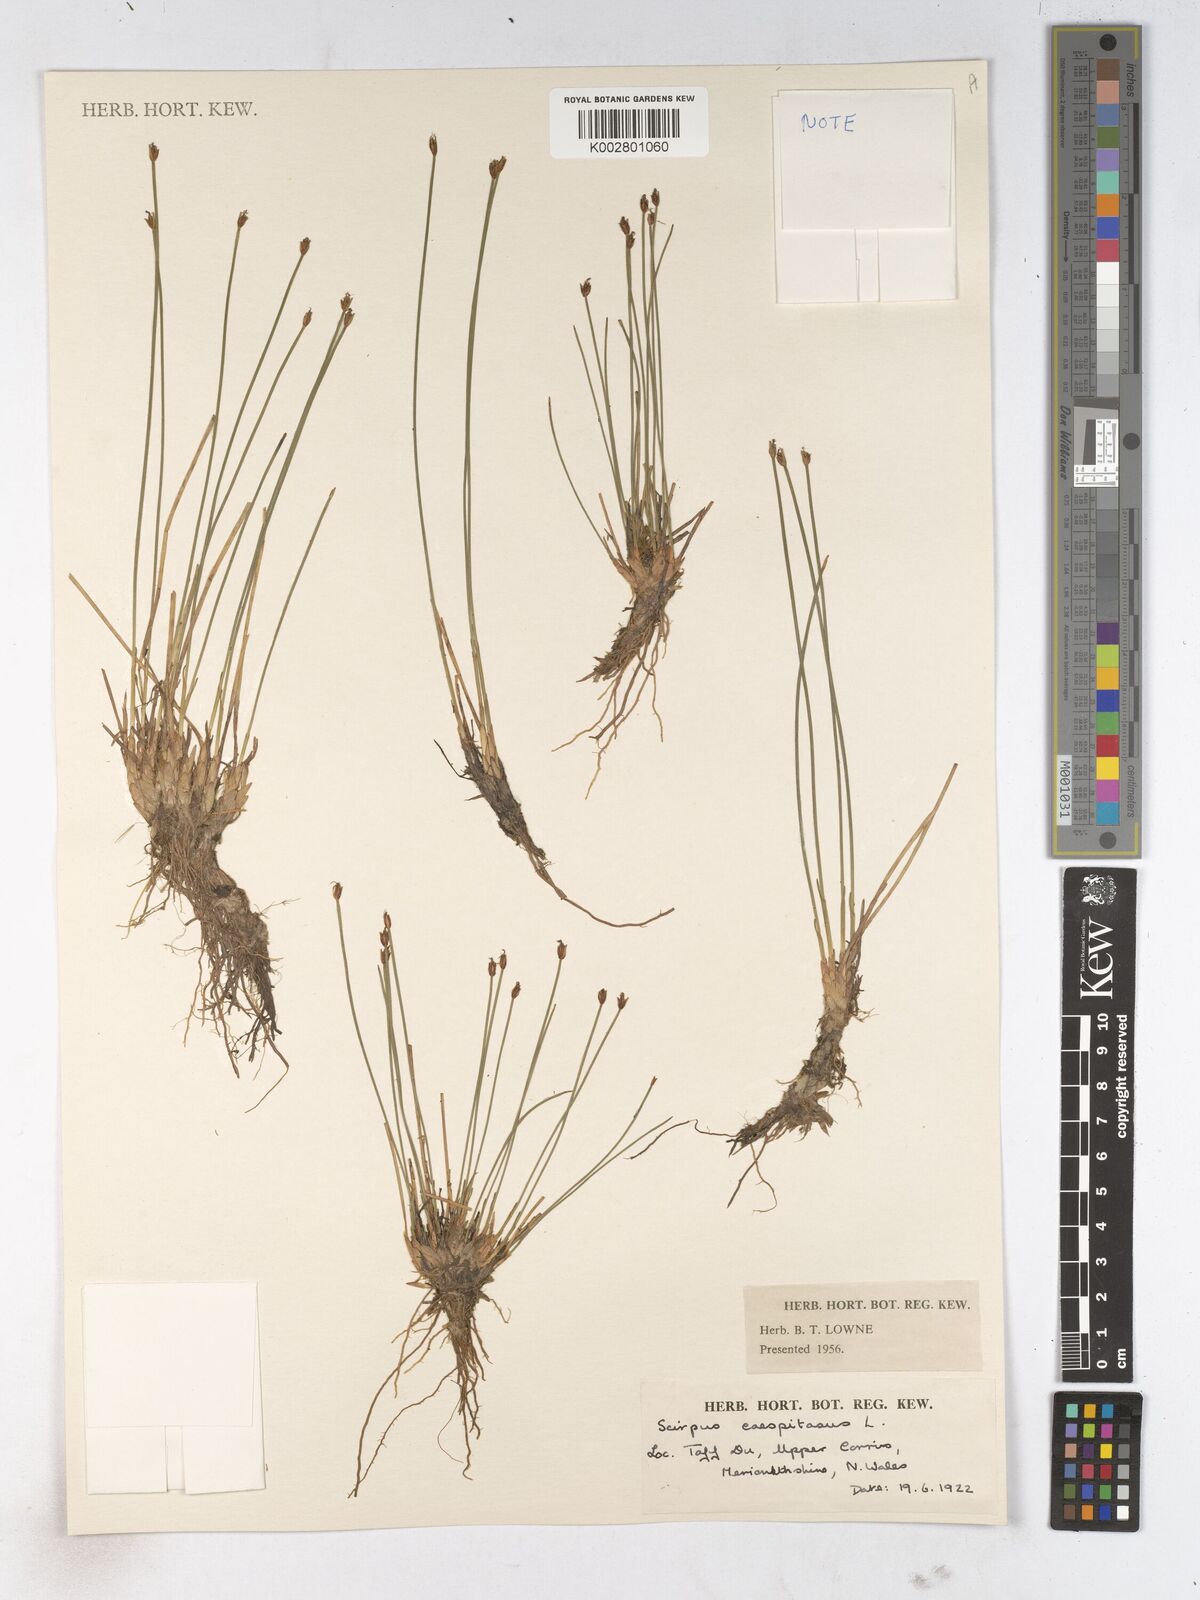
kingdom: Plantae
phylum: Tracheophyta
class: Liliopsida
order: Poales
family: Cyperaceae
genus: Trichophorum
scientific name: Trichophorum cespitosum
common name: Cespitose bulrush
